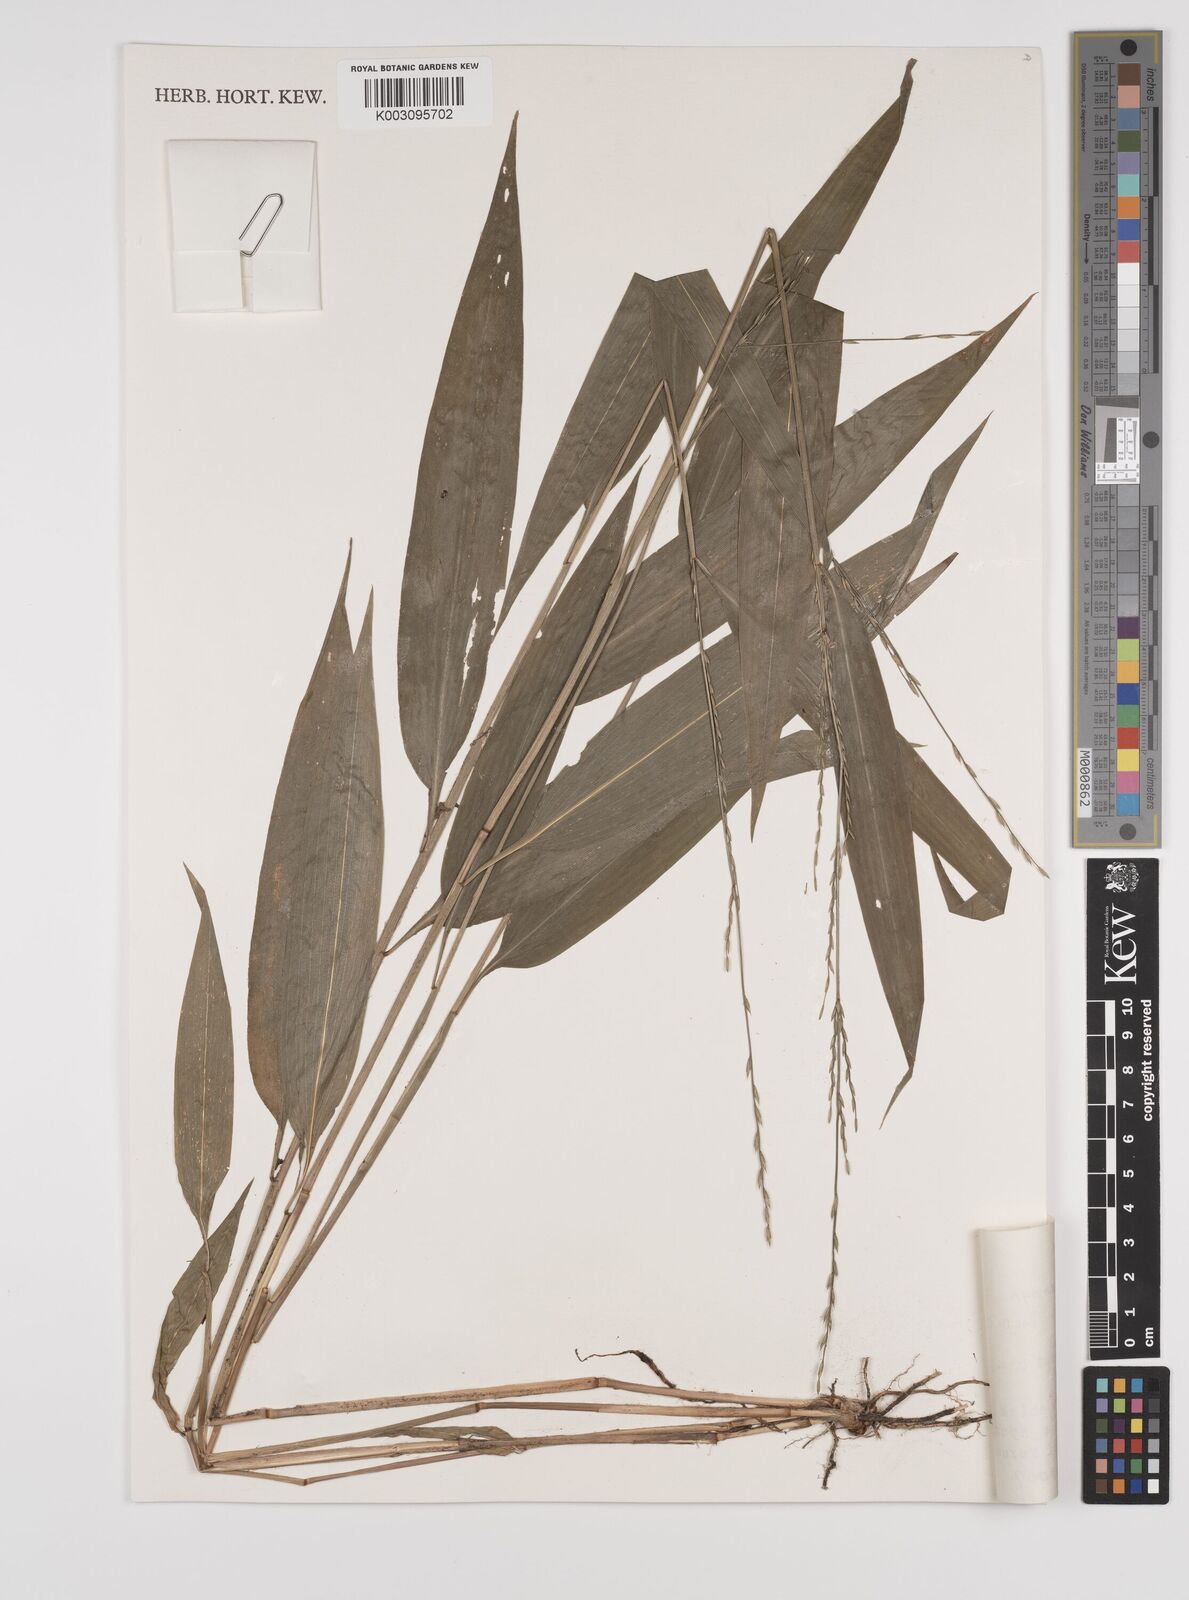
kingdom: Plantae
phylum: Tracheophyta
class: Liliopsida
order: Poales
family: Poaceae
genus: Lophatherum
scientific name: Lophatherum gracile
